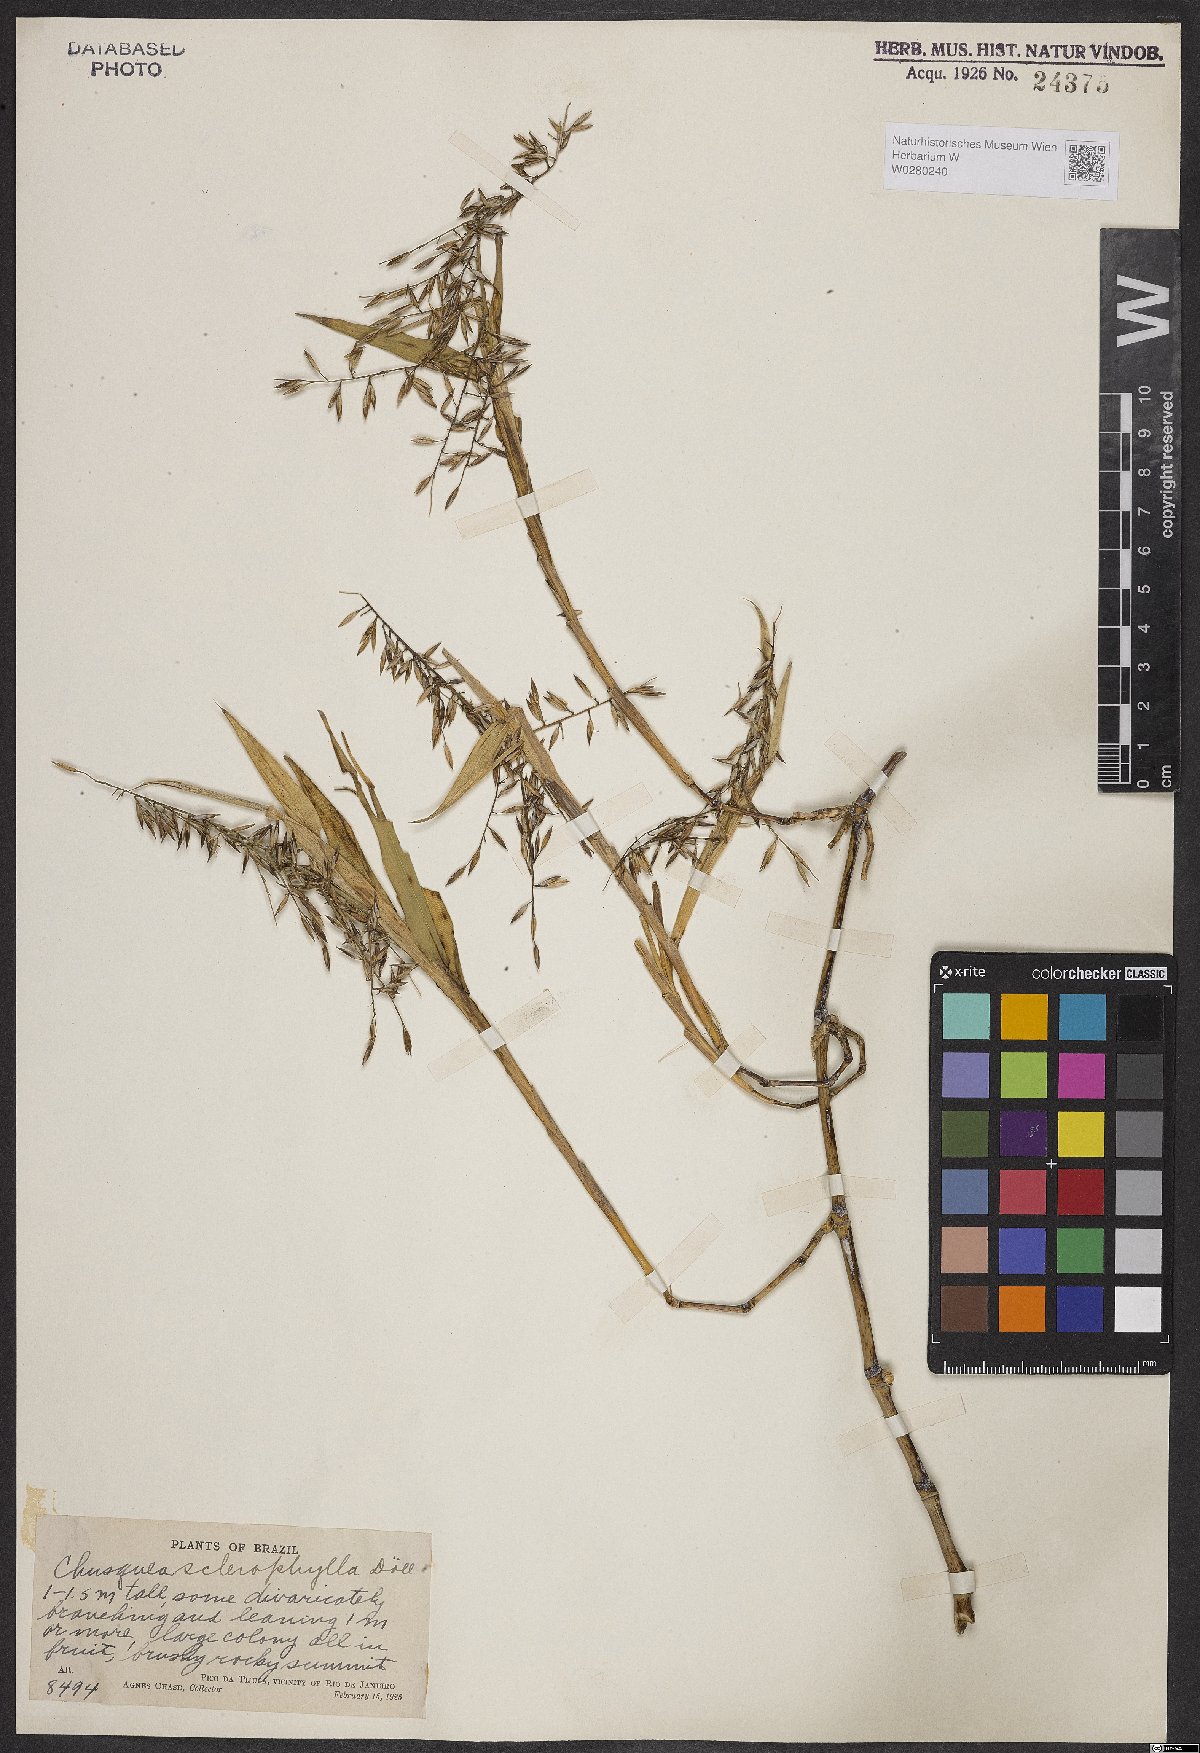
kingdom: Plantae
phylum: Tracheophyta
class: Liliopsida
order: Poales
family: Poaceae
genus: Chusquea
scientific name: Chusquea sclerophylla
